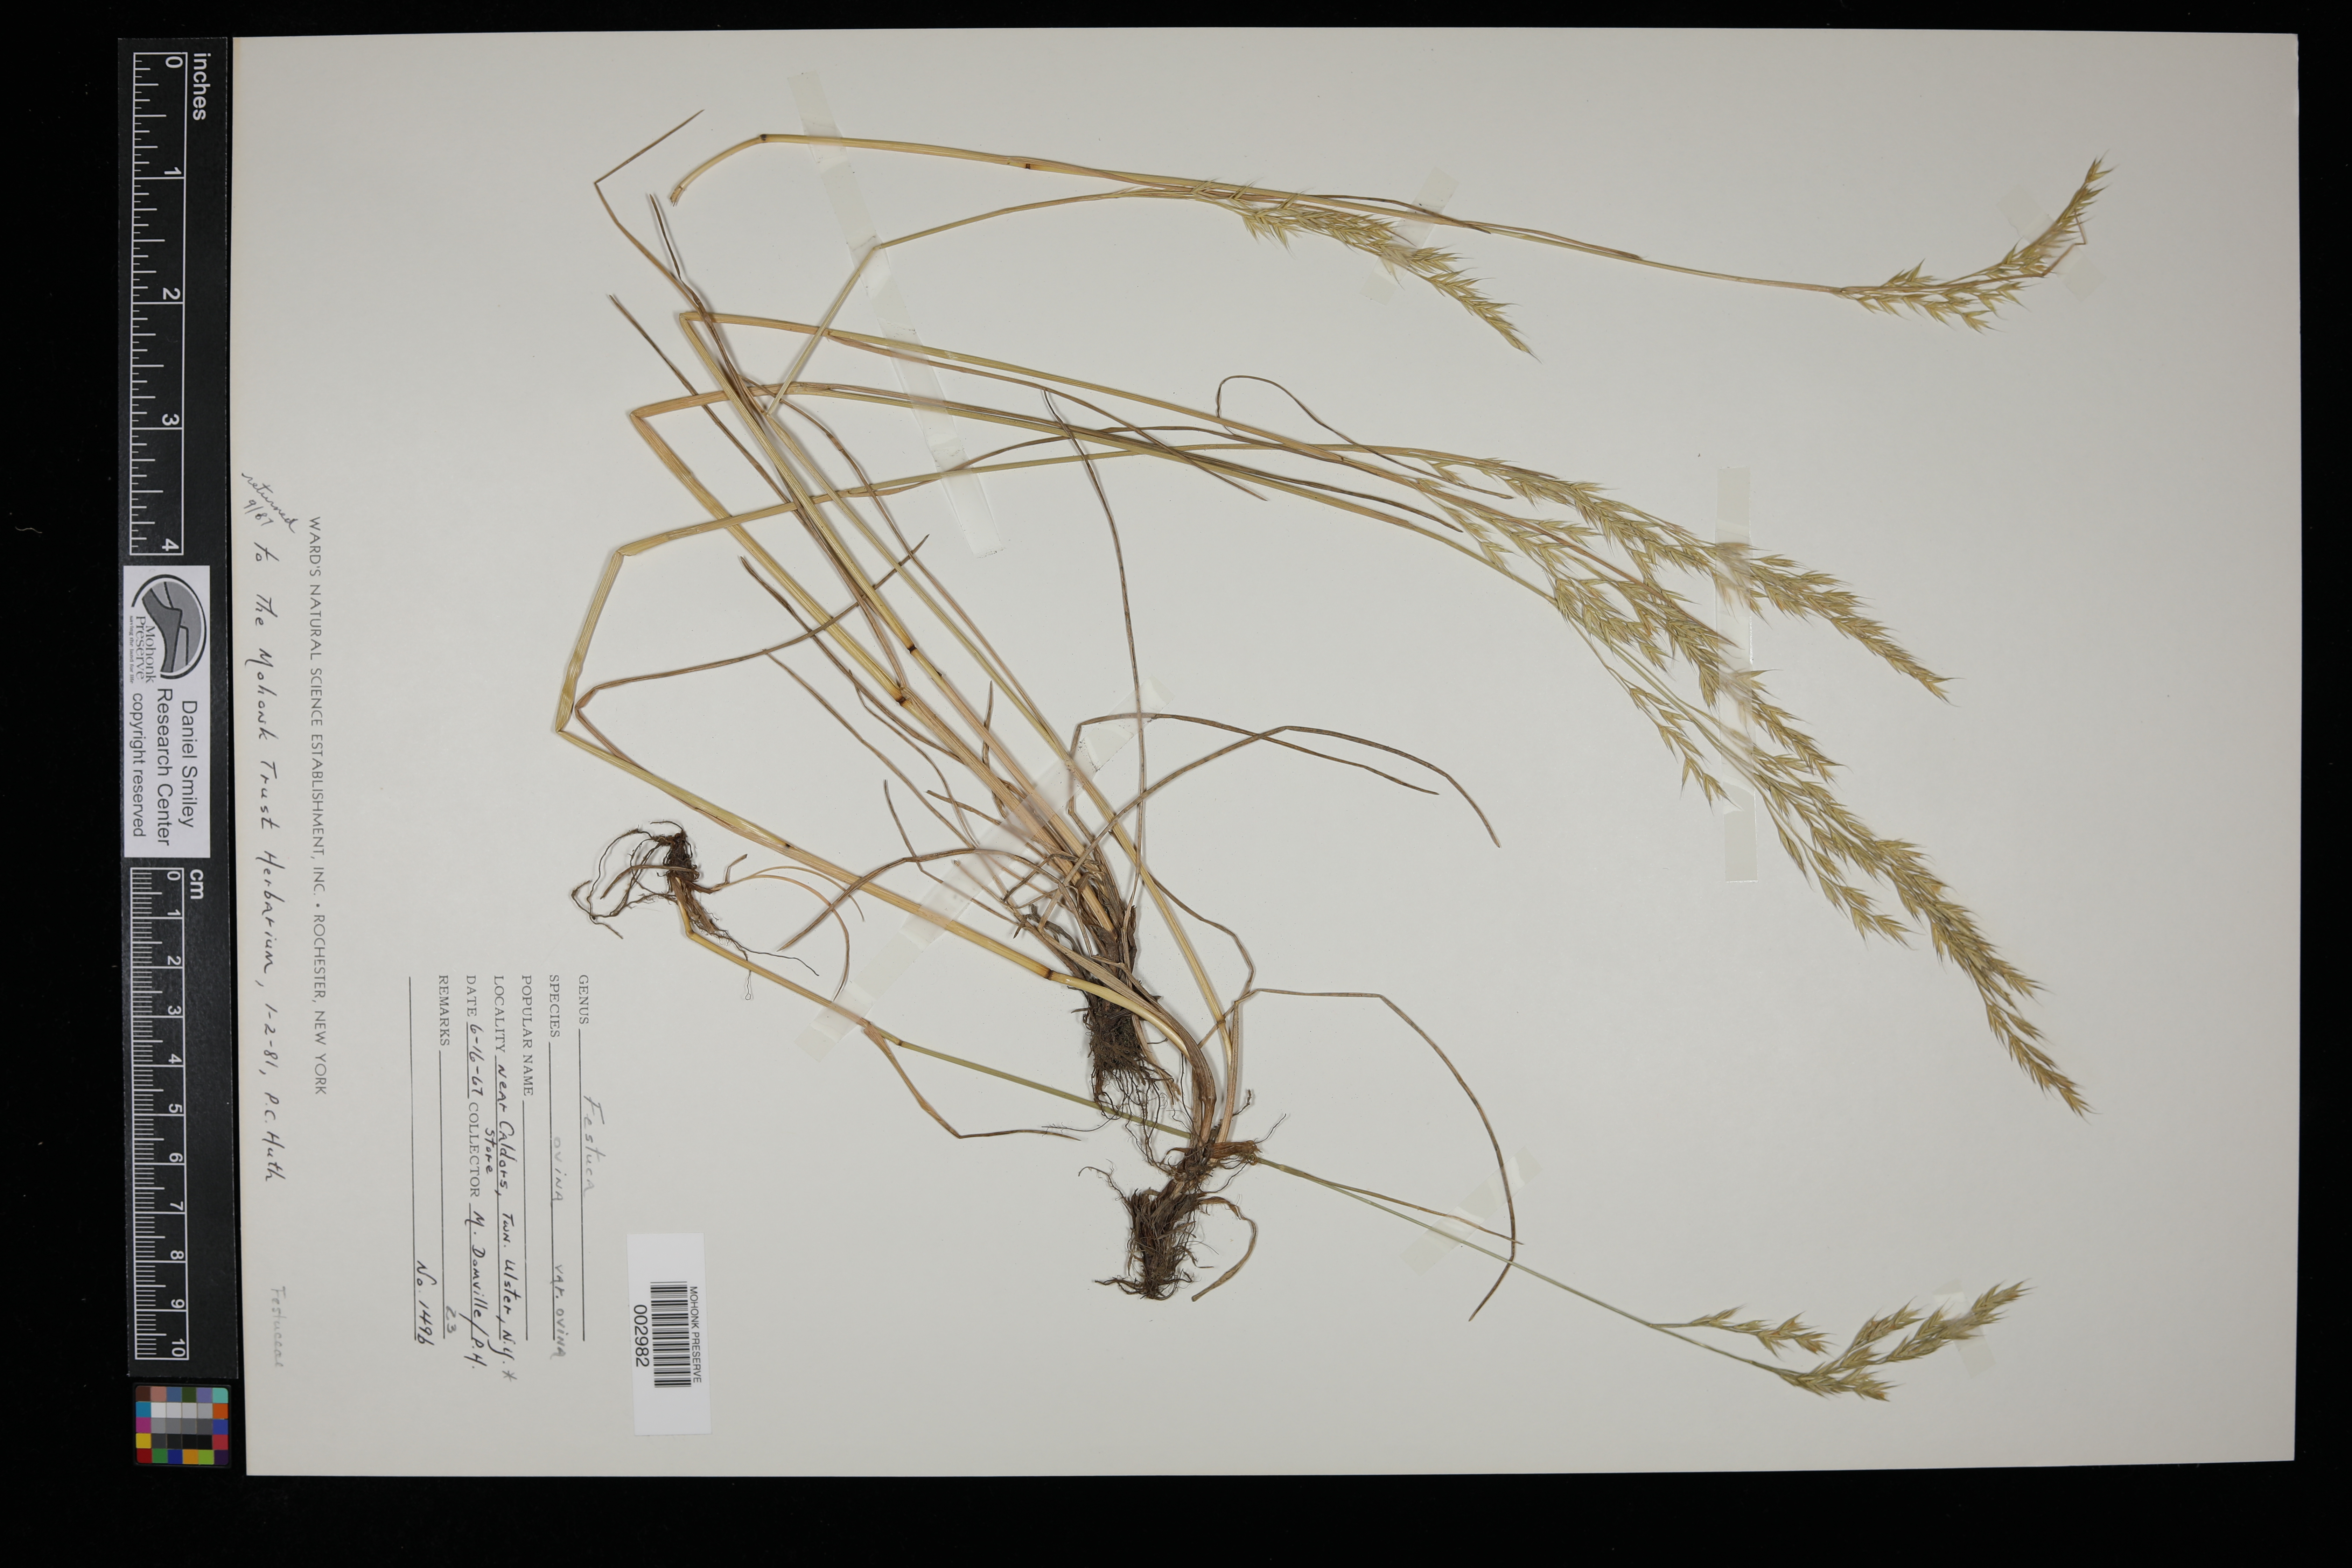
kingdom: Plantae
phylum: Tracheophyta
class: Liliopsida
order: Poales
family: Poaceae
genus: Festuca
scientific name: Festuca ovina
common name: Sheep fescue
